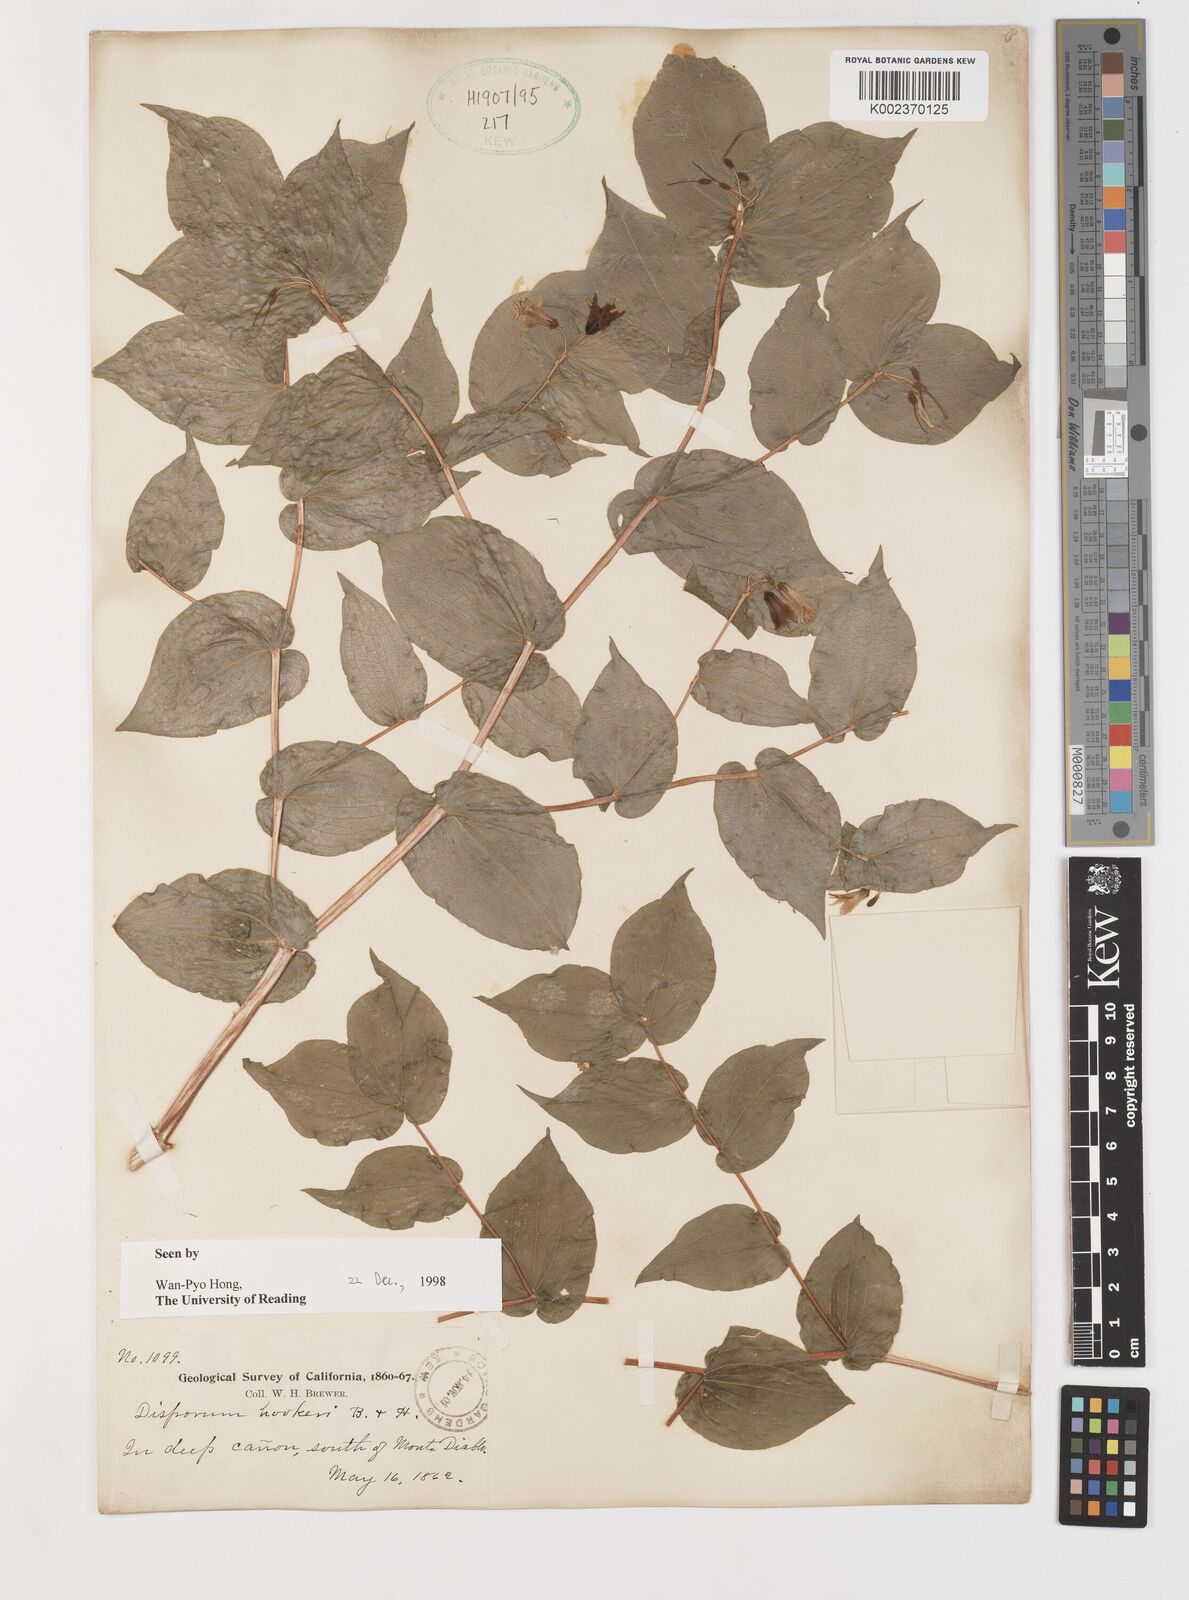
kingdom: Plantae
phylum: Tracheophyta
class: Liliopsida
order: Liliales
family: Liliaceae
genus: Prosartes
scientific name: Prosartes hookeri
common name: Fairy-bells
